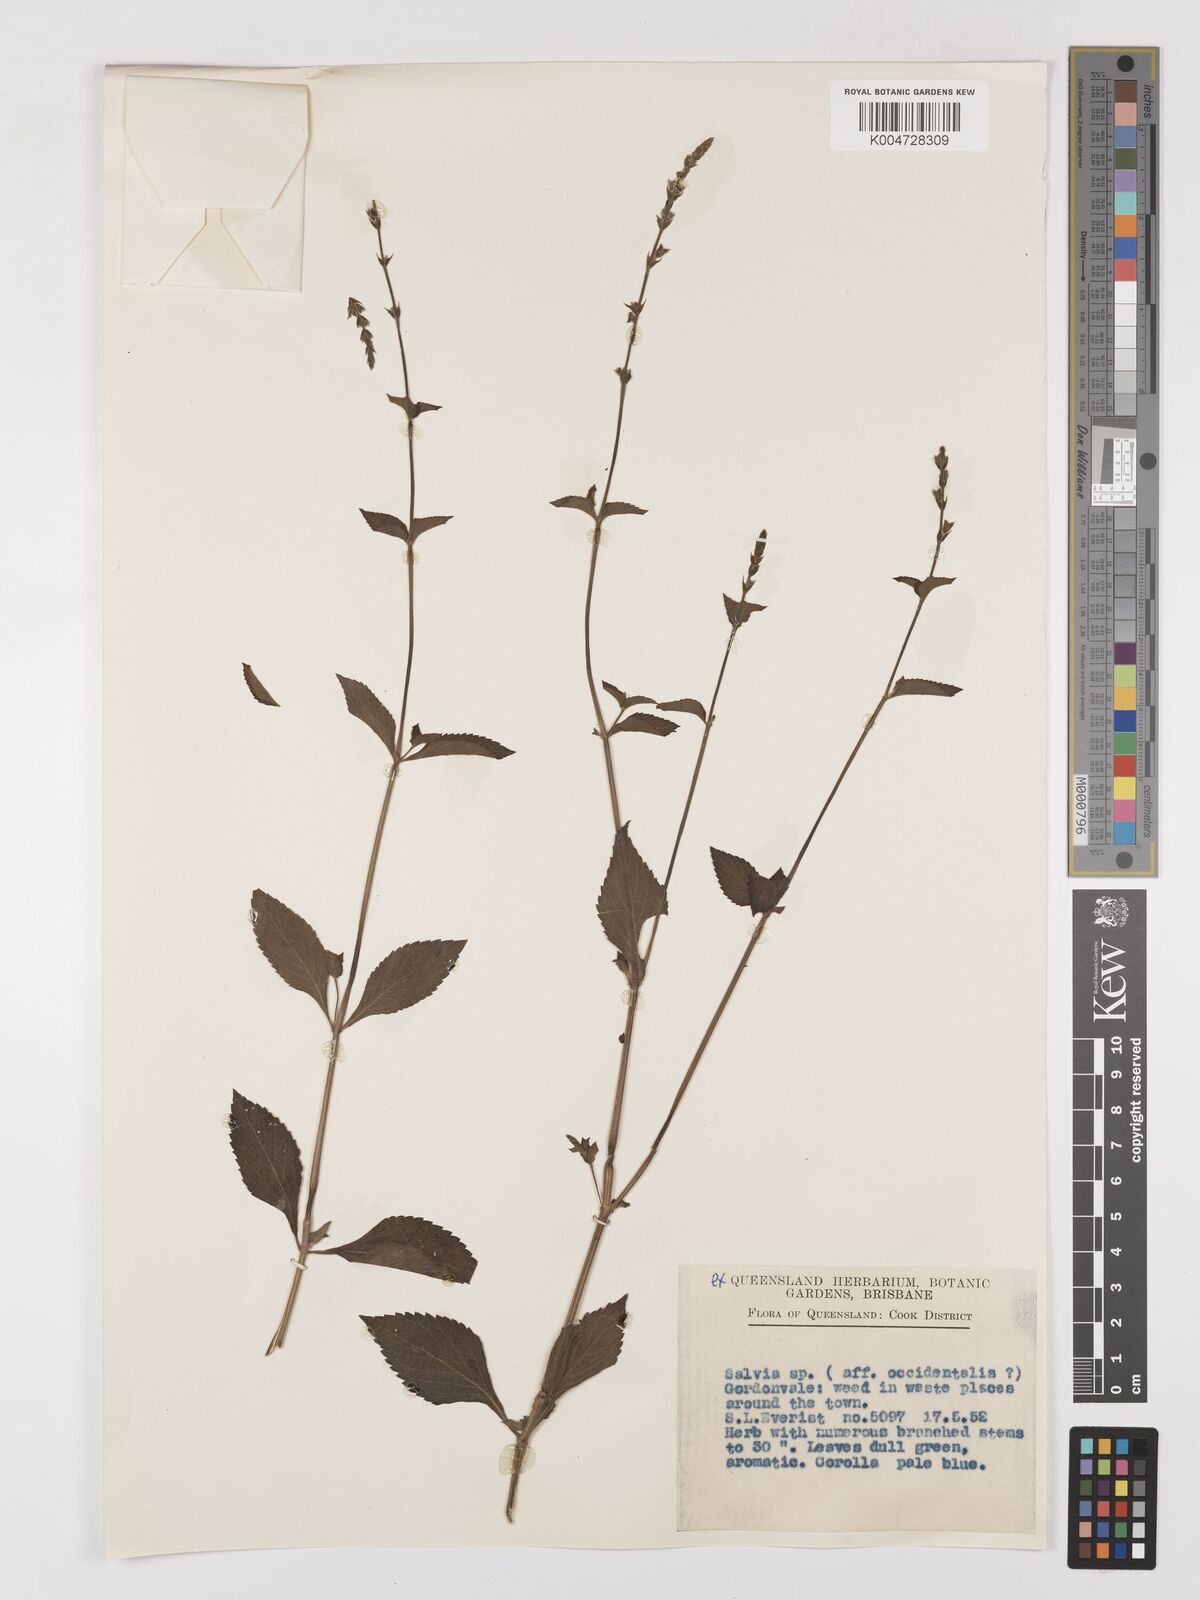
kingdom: Plantae
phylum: Tracheophyta
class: Magnoliopsida
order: Lamiales
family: Lamiaceae
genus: Salvia
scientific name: Salvia
